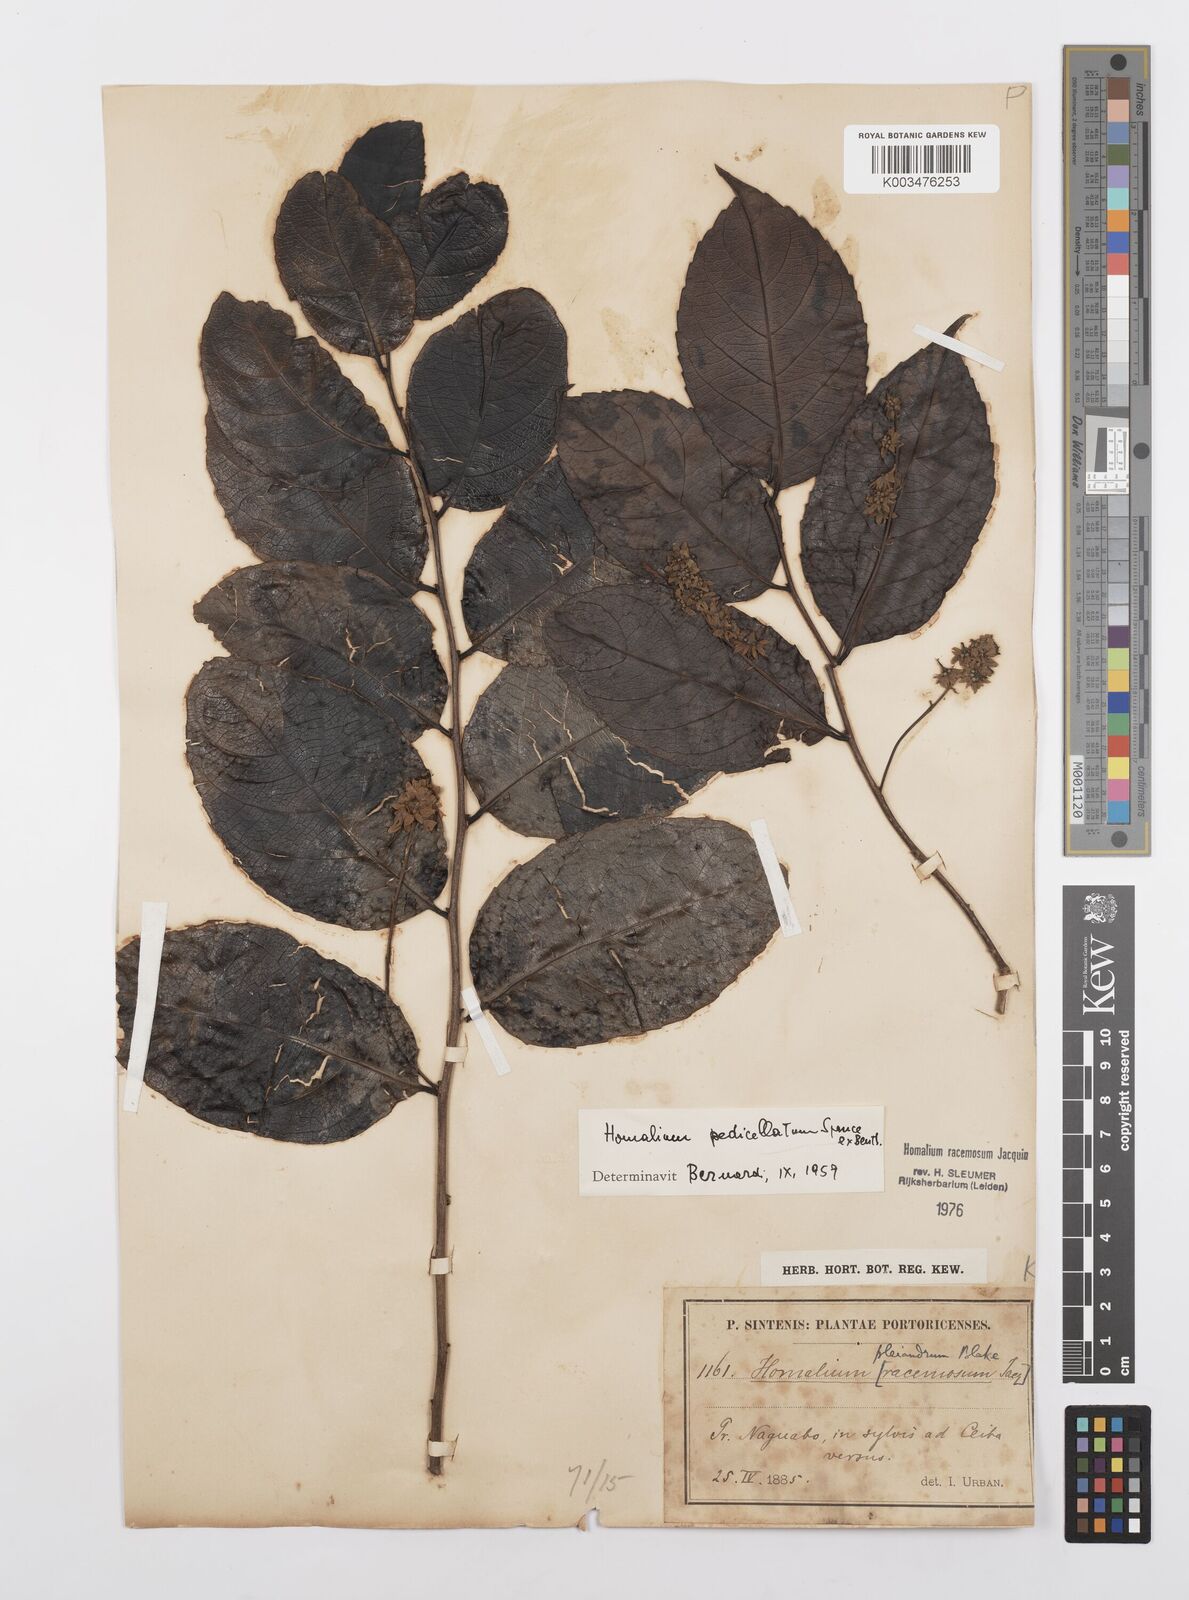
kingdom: Plantae
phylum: Tracheophyta
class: Magnoliopsida
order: Malpighiales
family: Salicaceae
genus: Homalium
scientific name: Homalium racemosum
